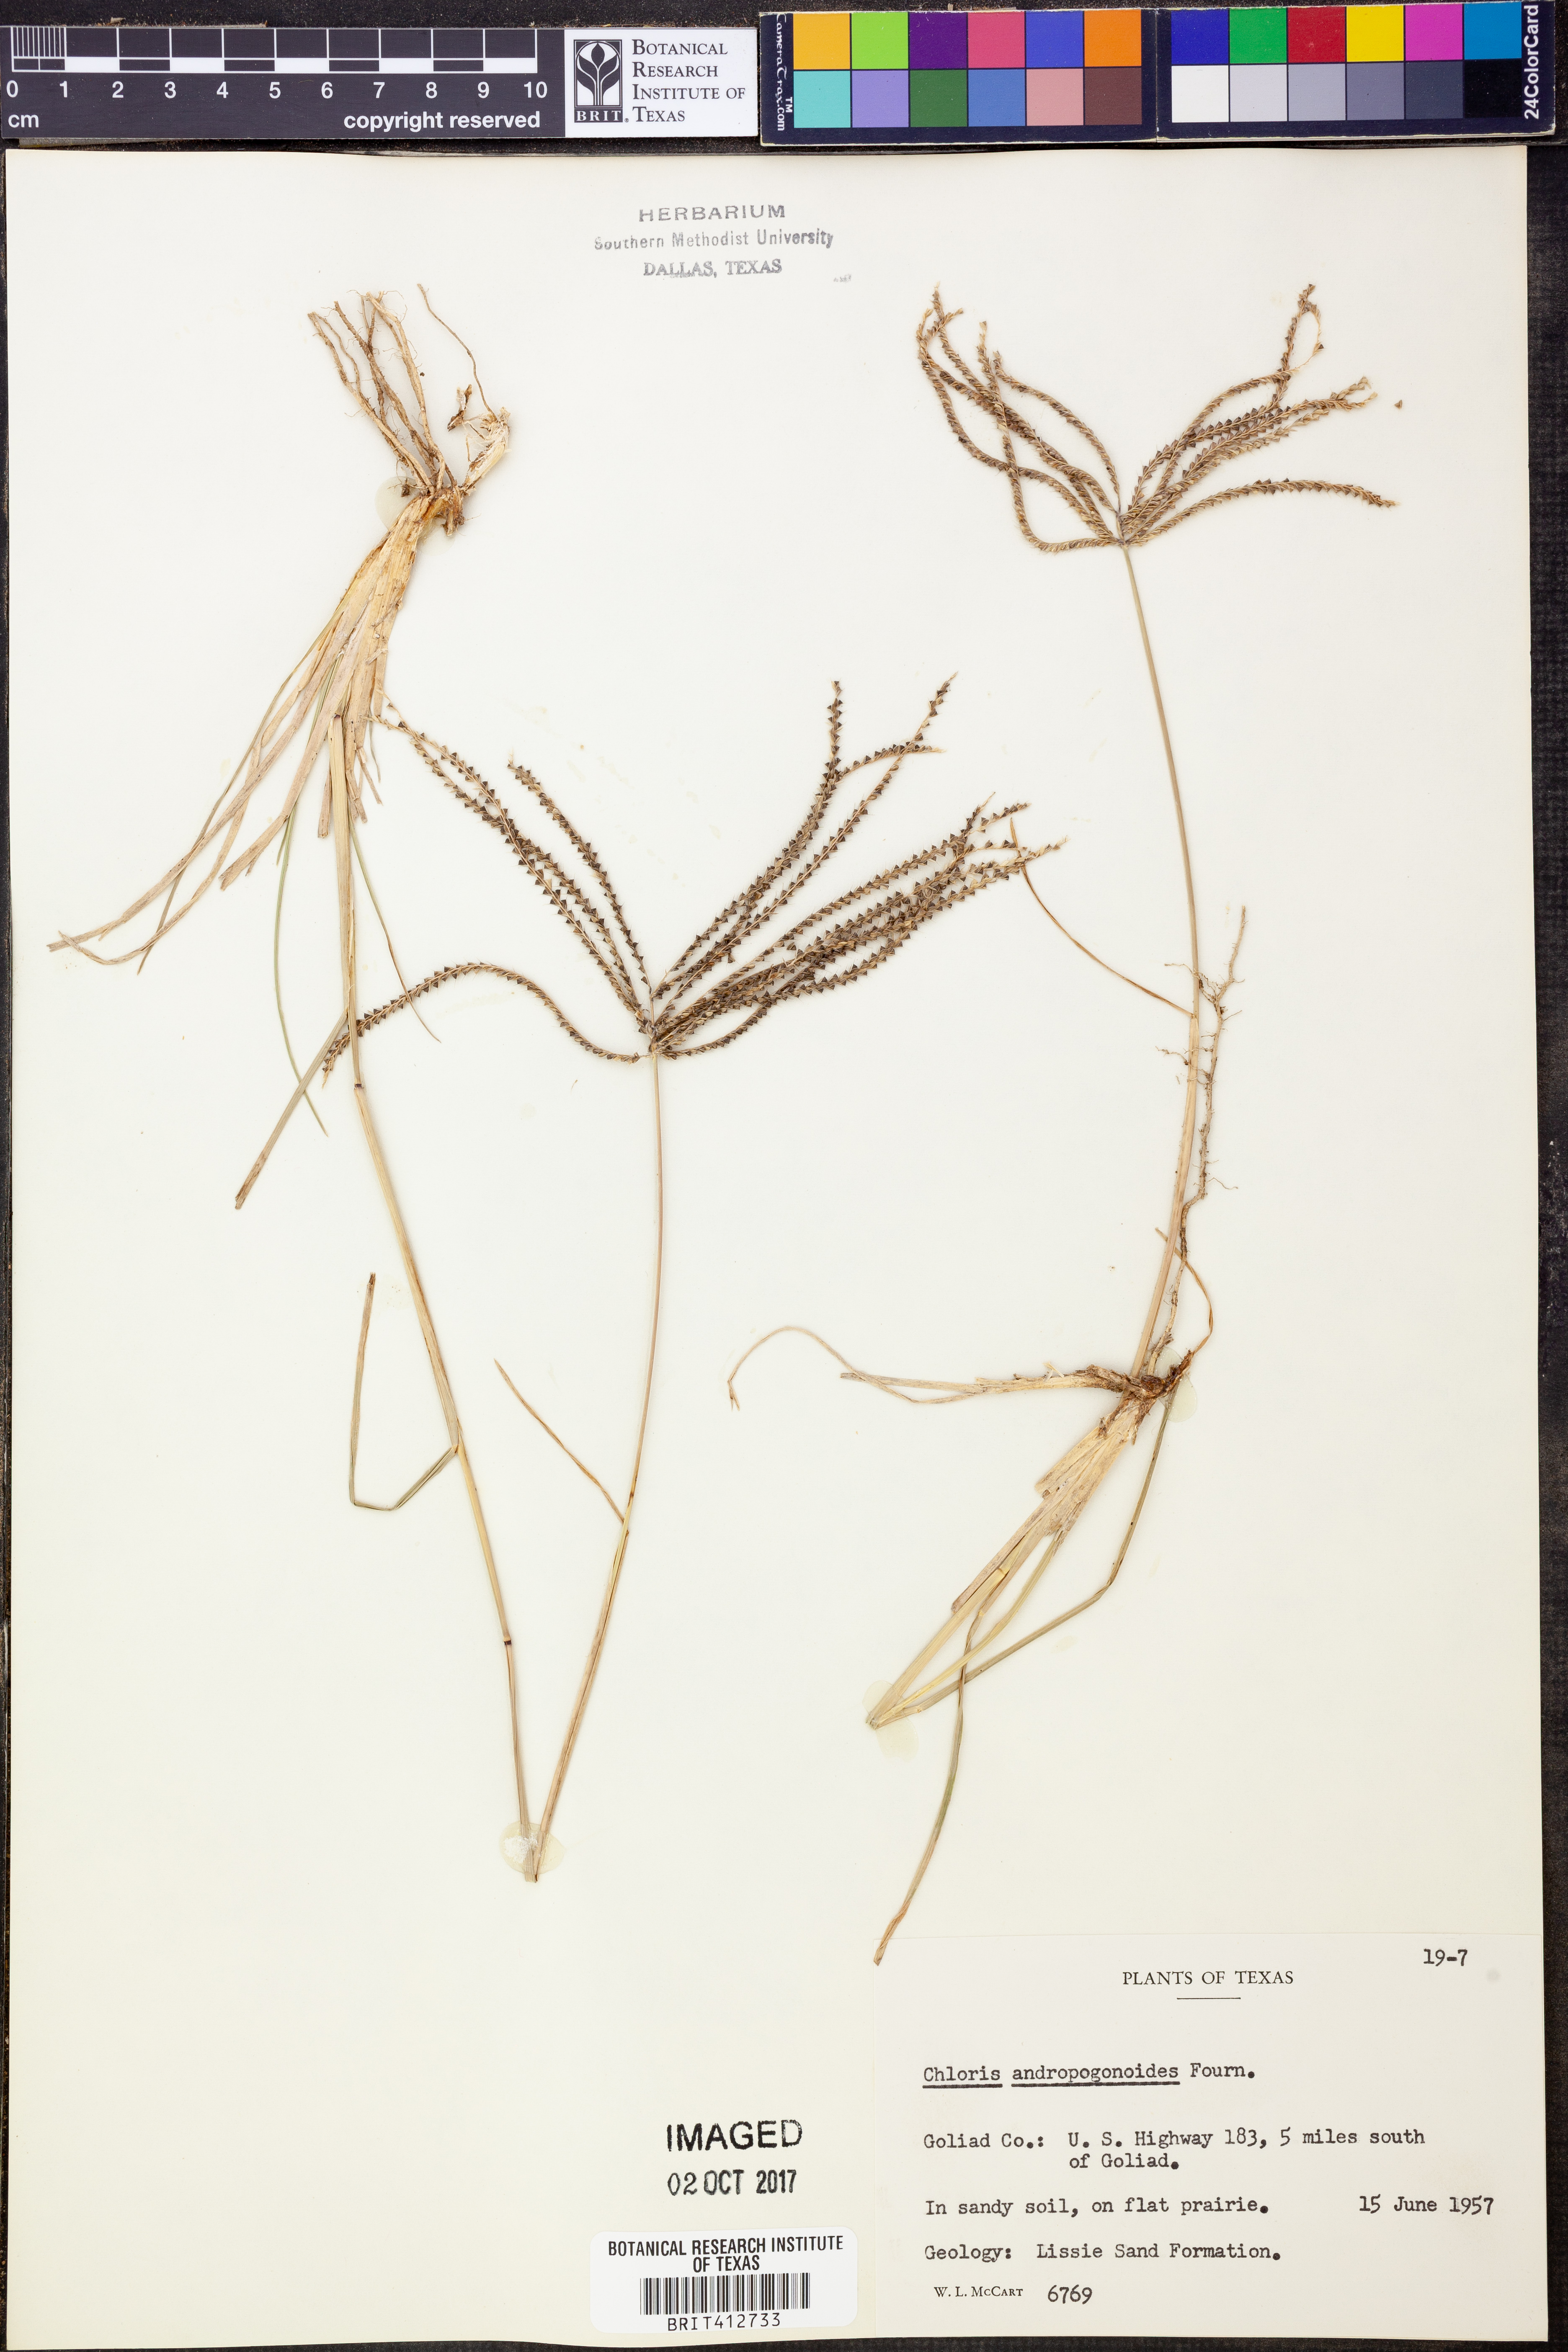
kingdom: Plantae
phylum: Tracheophyta
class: Liliopsida
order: Poales
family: Poaceae
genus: Chloris
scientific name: Chloris andropogonoides
